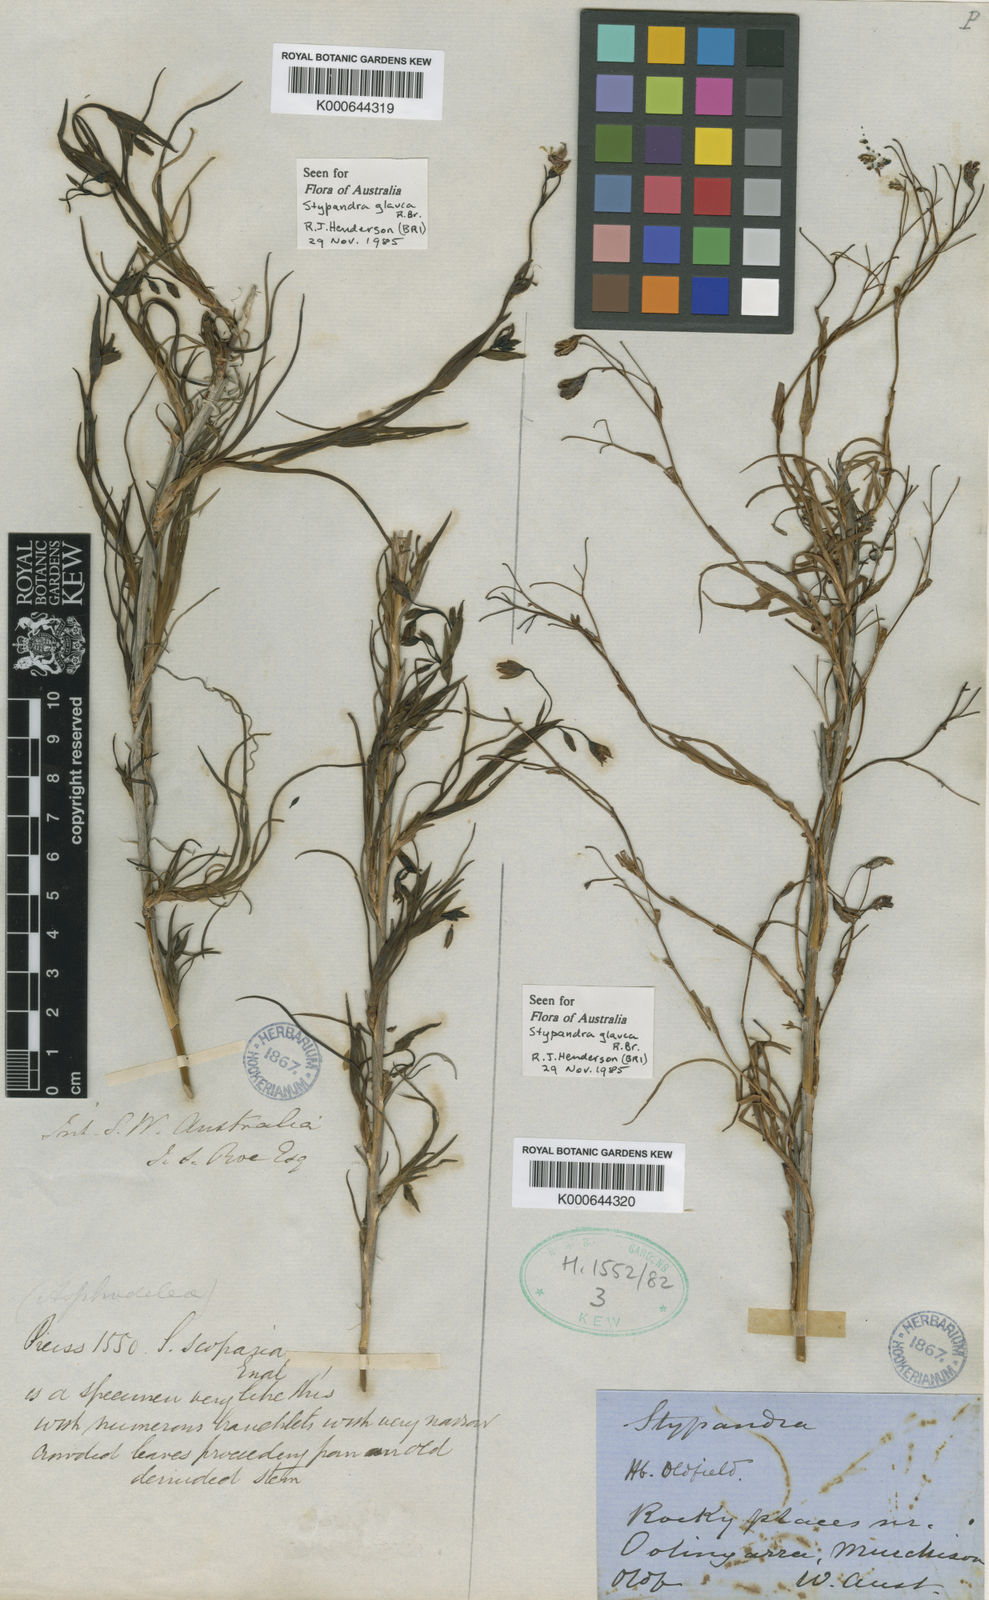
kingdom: Plantae
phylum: Tracheophyta
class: Liliopsida
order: Asparagales
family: Asphodelaceae
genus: Stypandra
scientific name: Stypandra glauca
